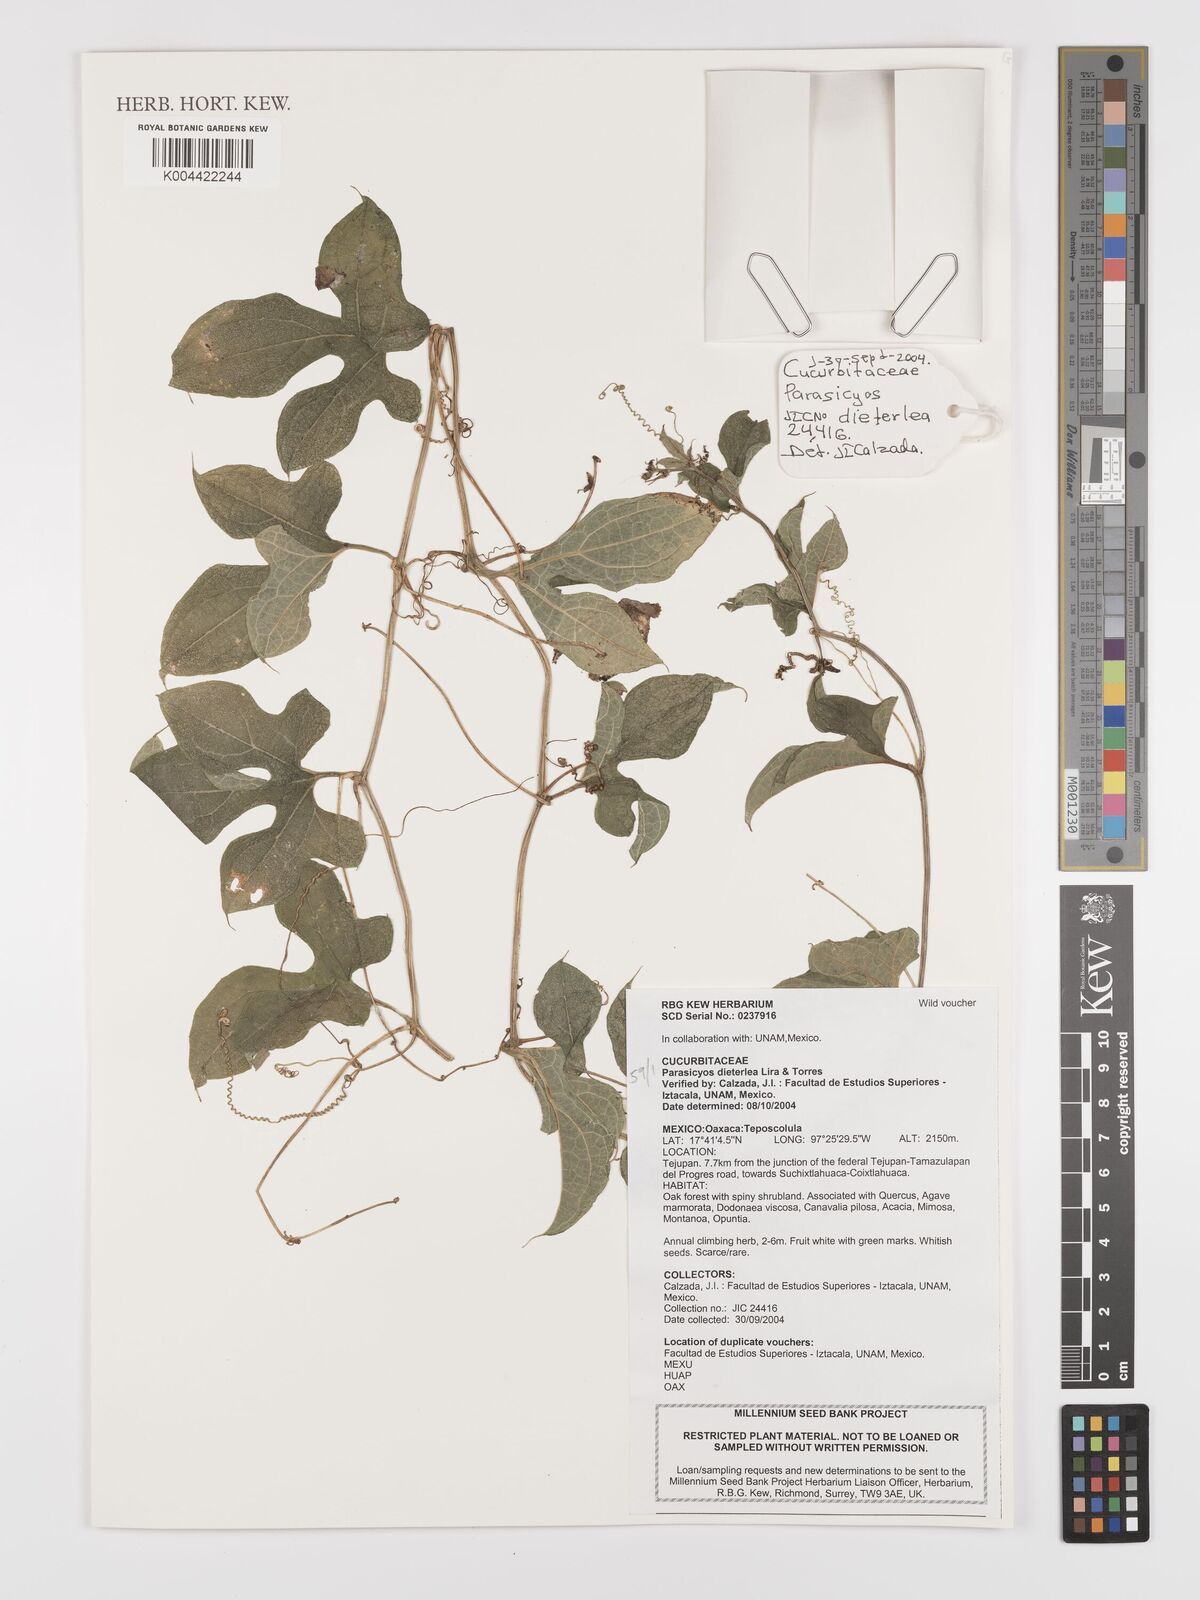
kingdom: Plantae
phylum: Tracheophyta
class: Magnoliopsida
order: Cucurbitales
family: Cucurbitaceae
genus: Parasicyos
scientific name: Parasicyos dieterleae
